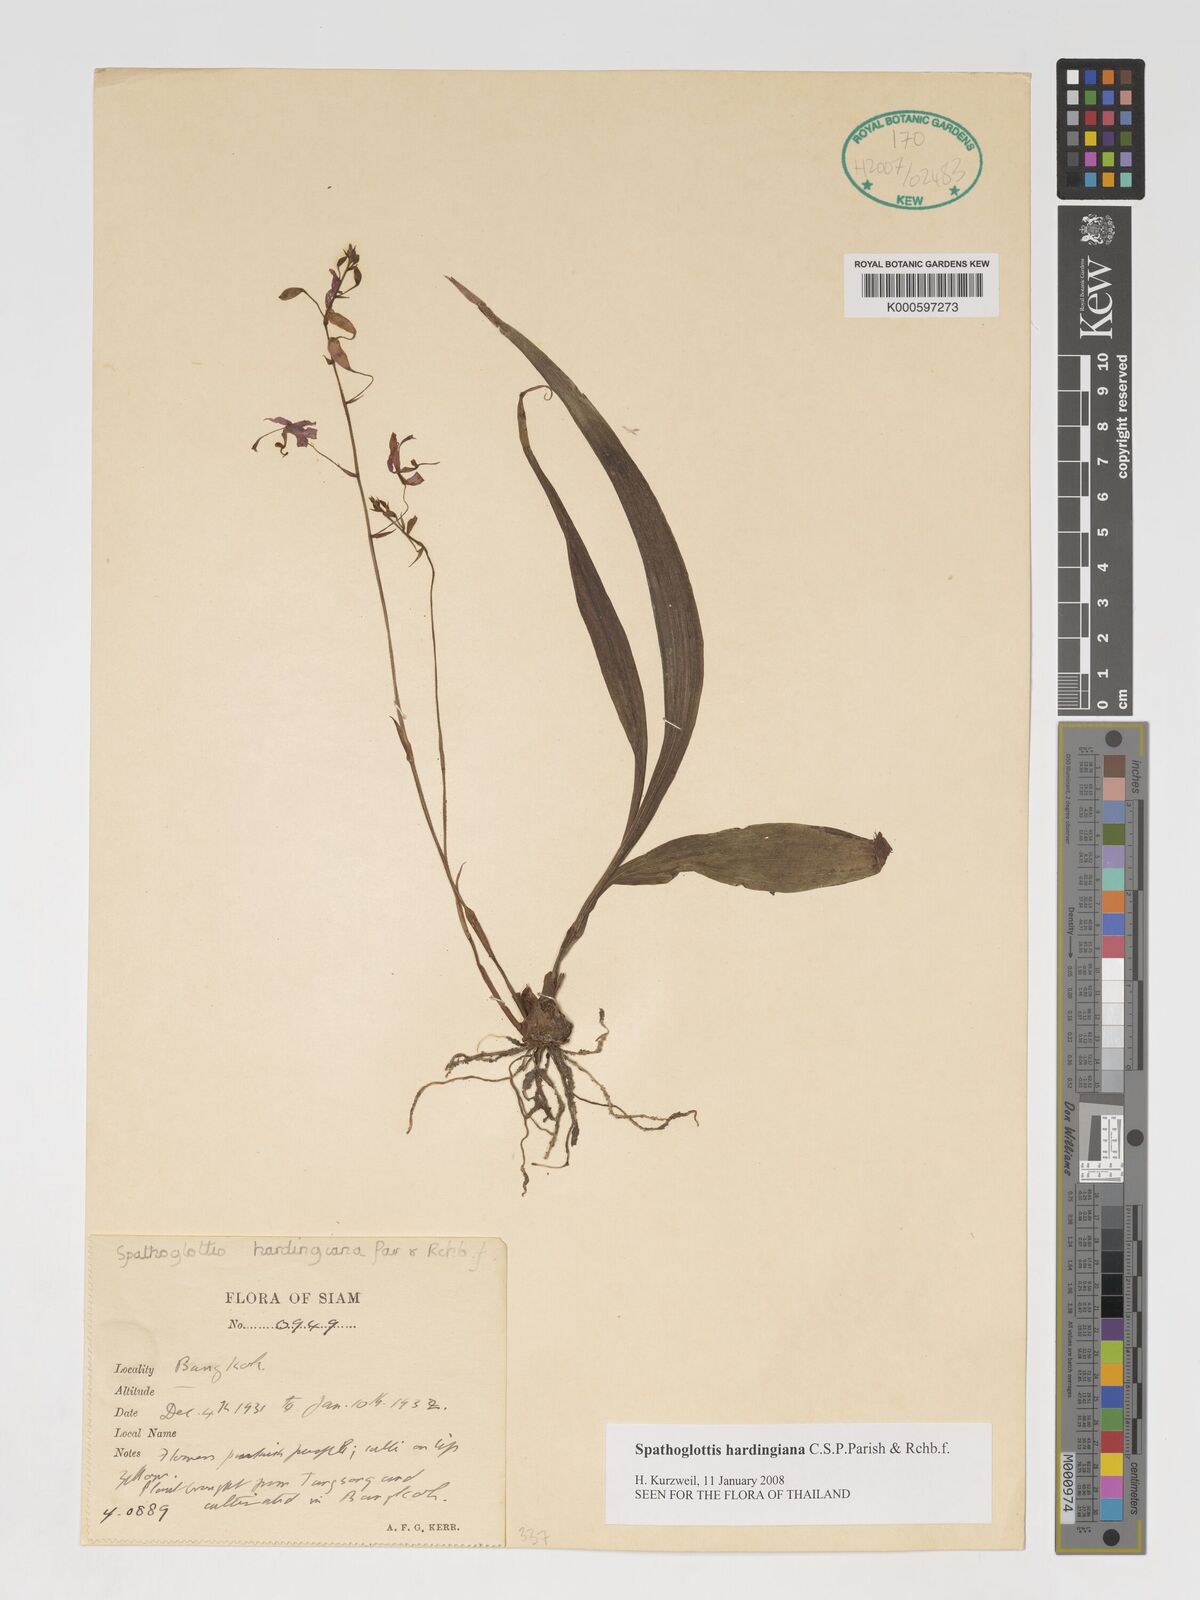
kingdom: Plantae
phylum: Tracheophyta
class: Liliopsida
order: Asparagales
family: Orchidaceae
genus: Spathoglottis
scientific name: Spathoglottis hardingiana
